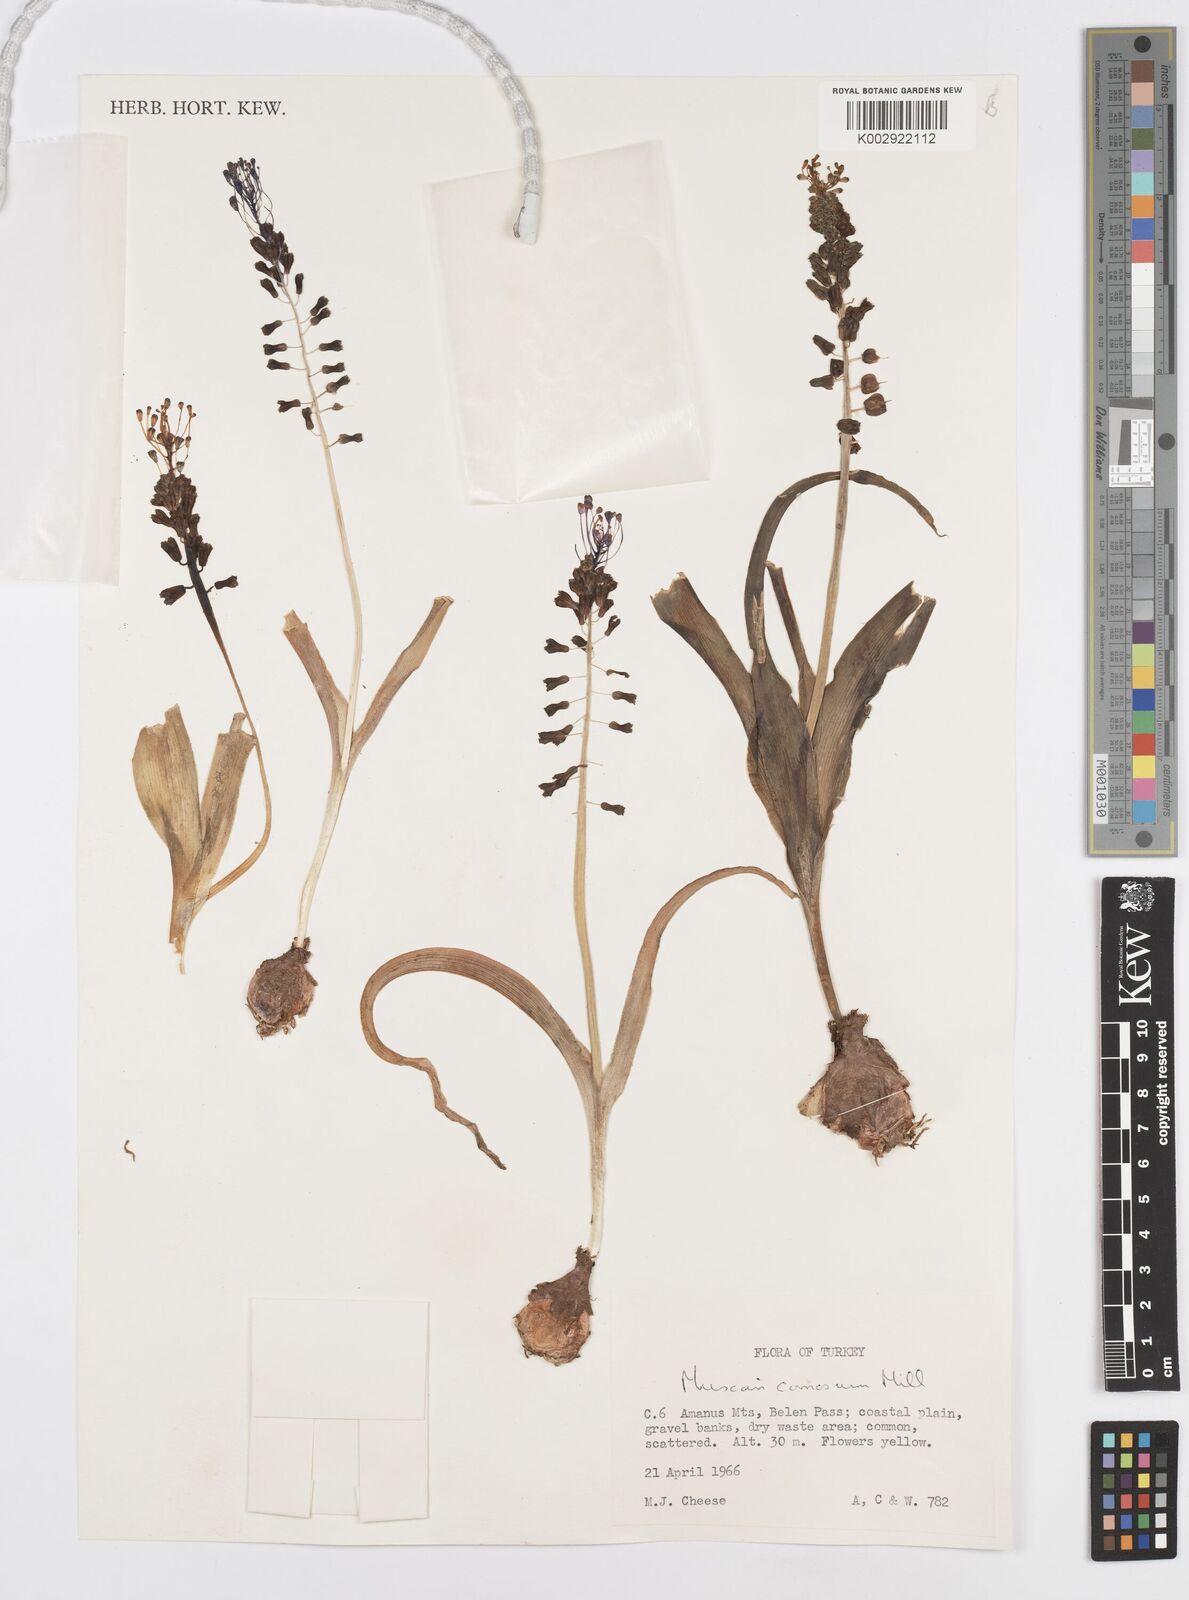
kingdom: Plantae
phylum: Tracheophyta
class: Liliopsida
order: Asparagales
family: Asparagaceae
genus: Muscari
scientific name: Muscari comosum
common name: Tassel hyacinth
